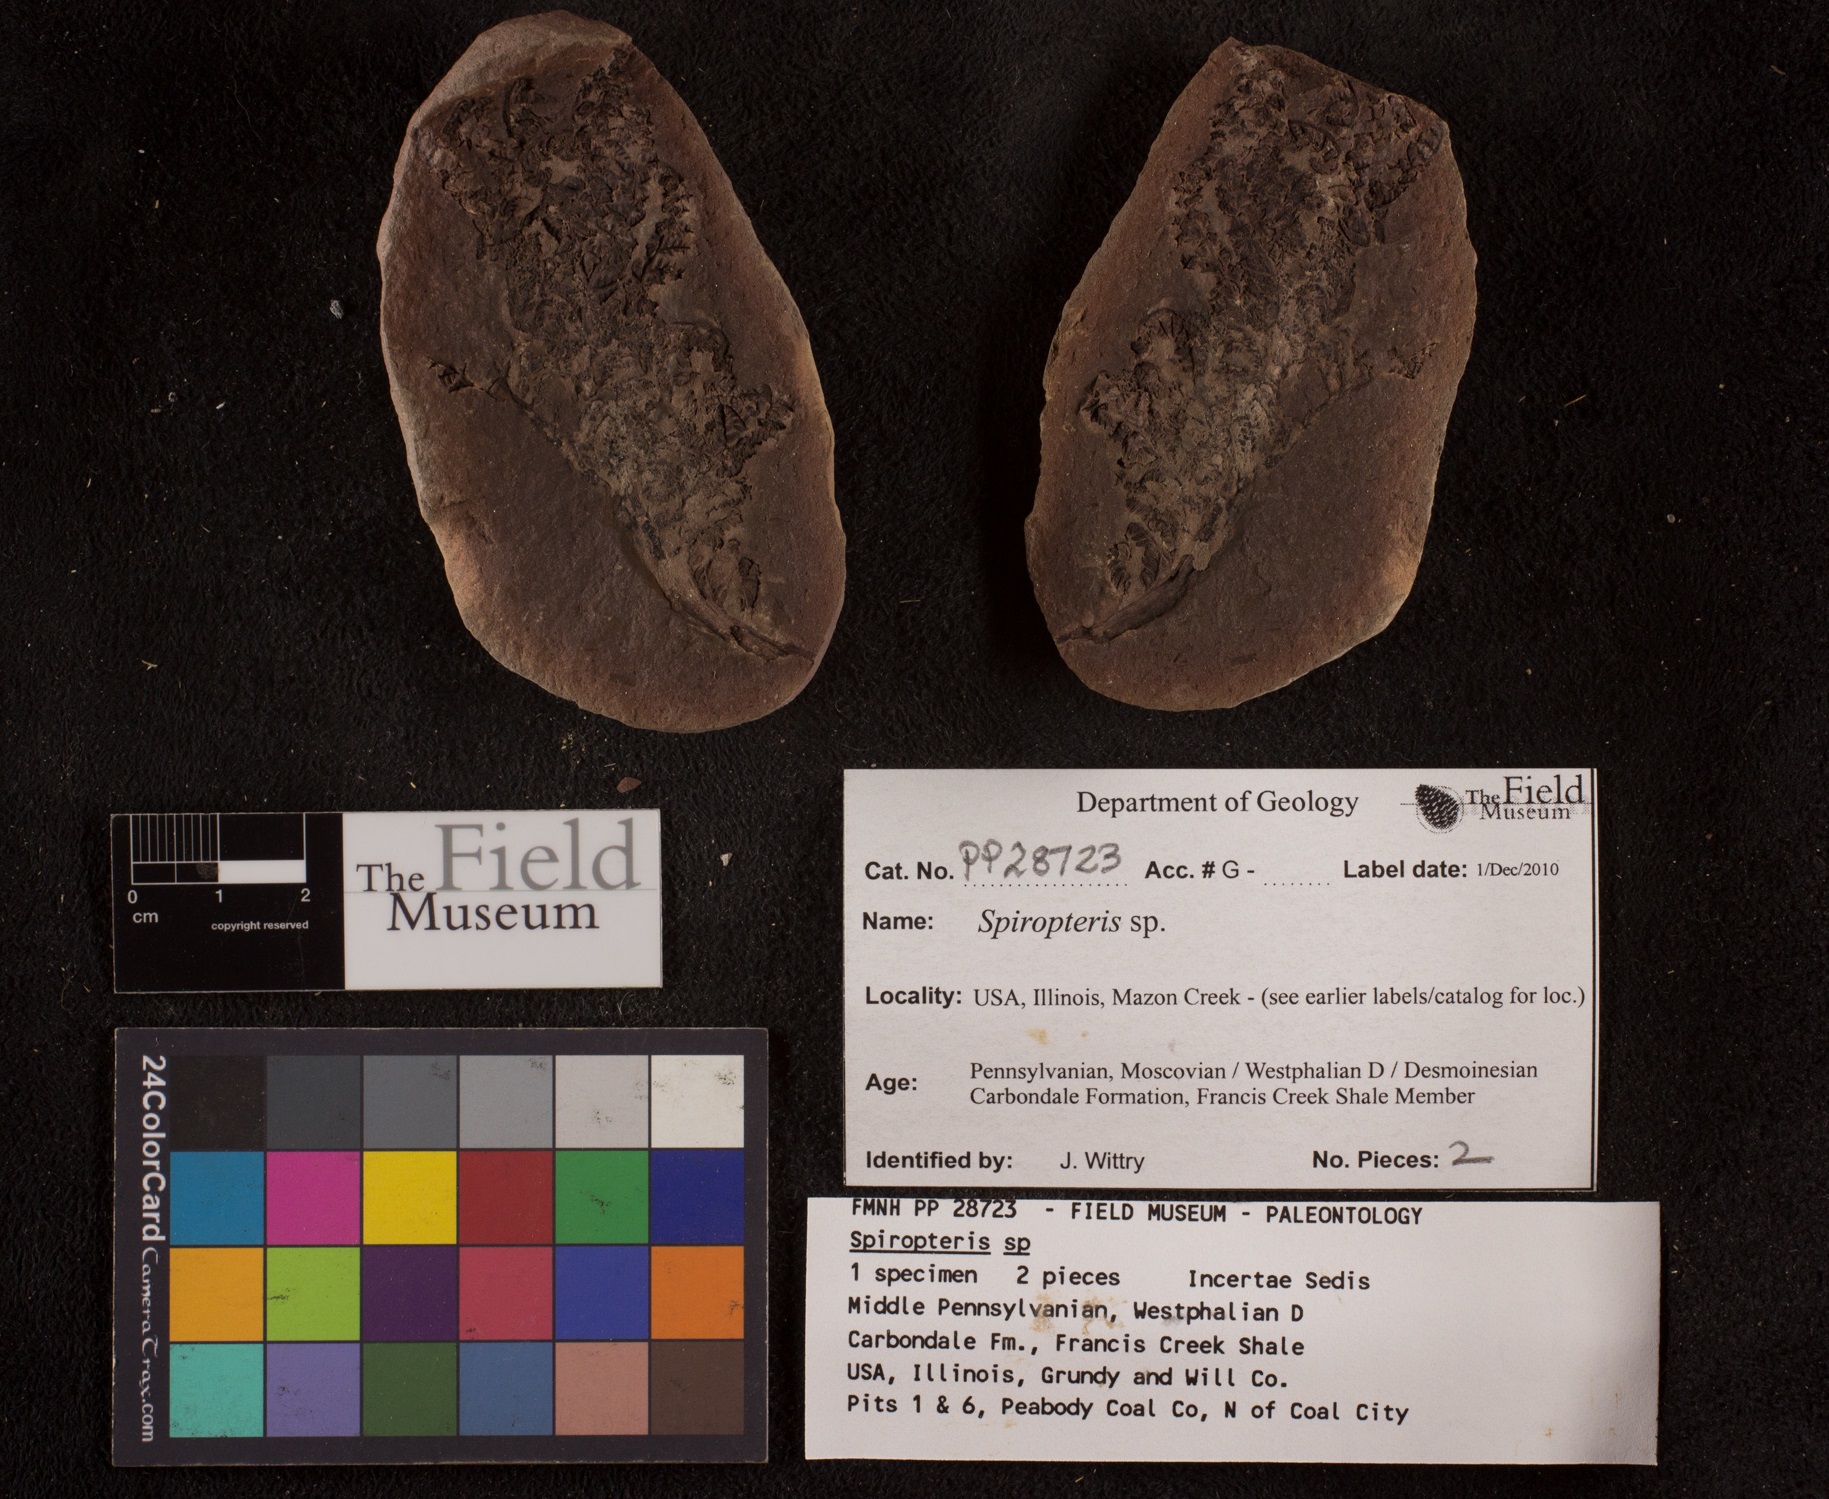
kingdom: Plantae
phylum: Tracheophyta
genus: Spiropteris
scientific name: Spiropteris
